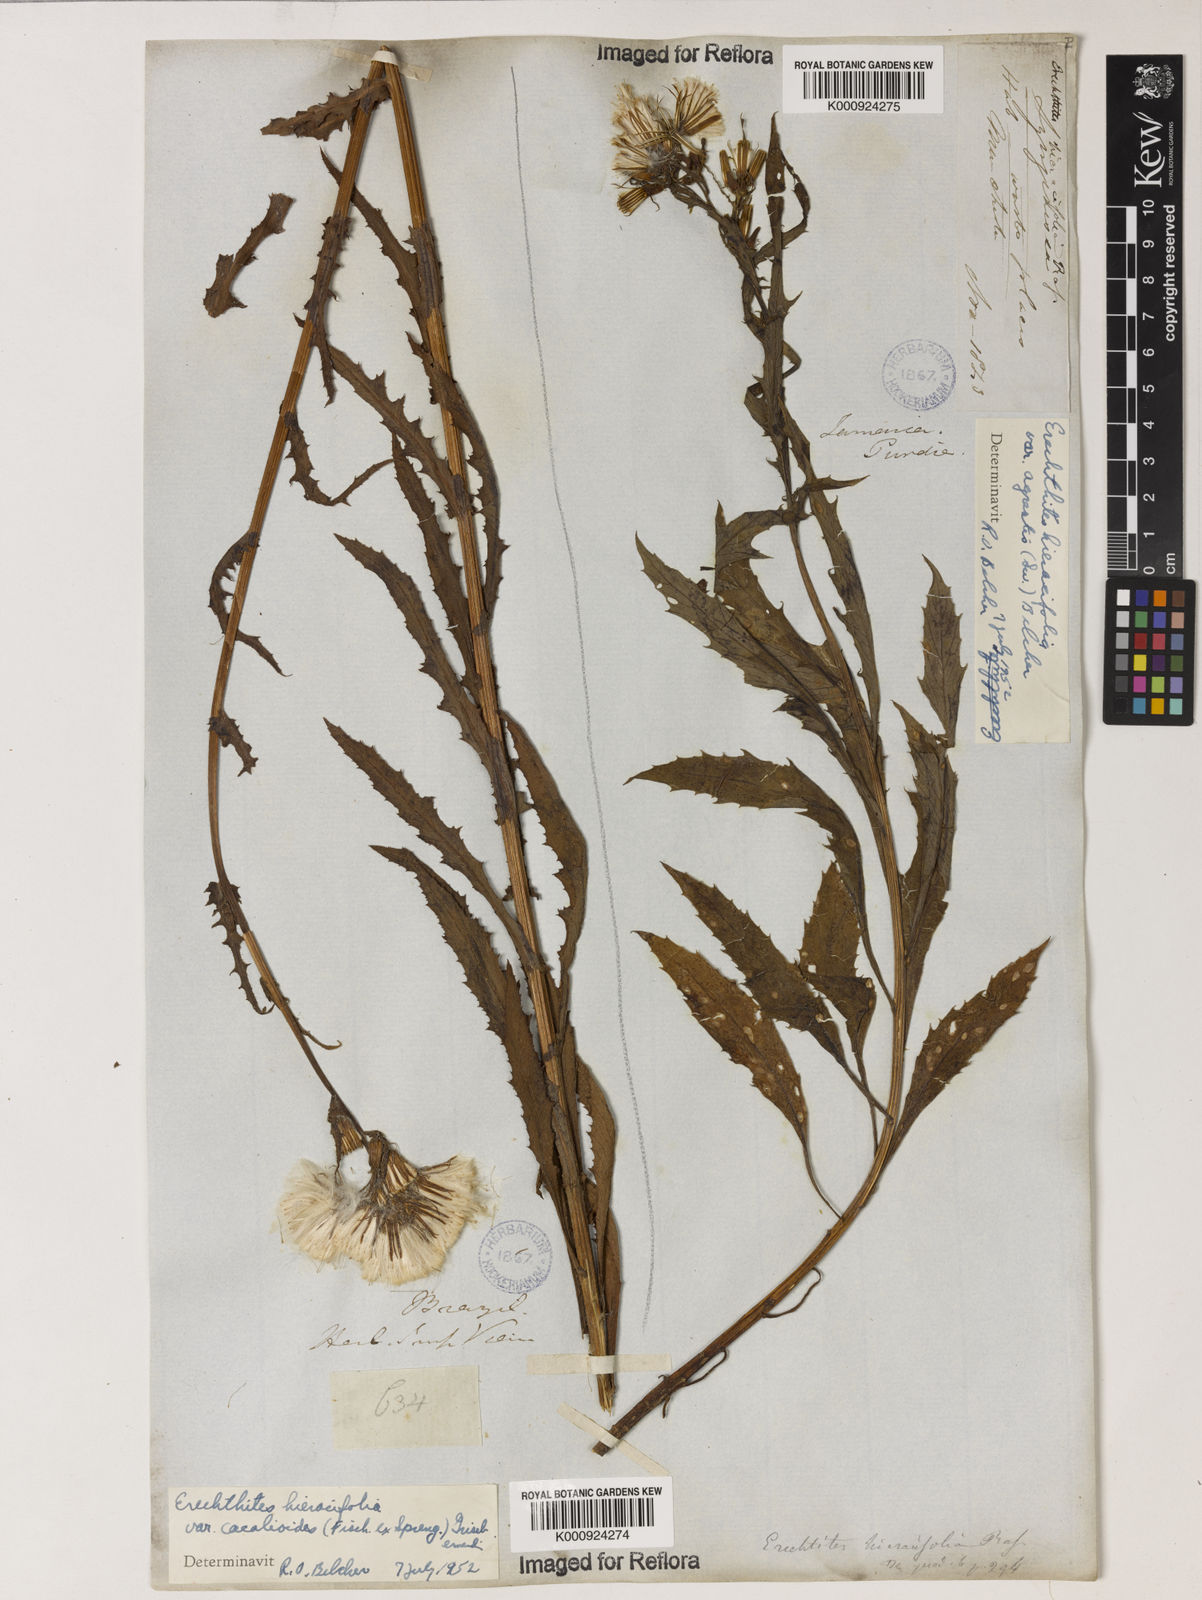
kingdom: Plantae
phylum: Tracheophyta
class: Magnoliopsida
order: Asterales
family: Asteraceae
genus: Erechtites
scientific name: Erechtites hieraciifolius
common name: American burnweed
